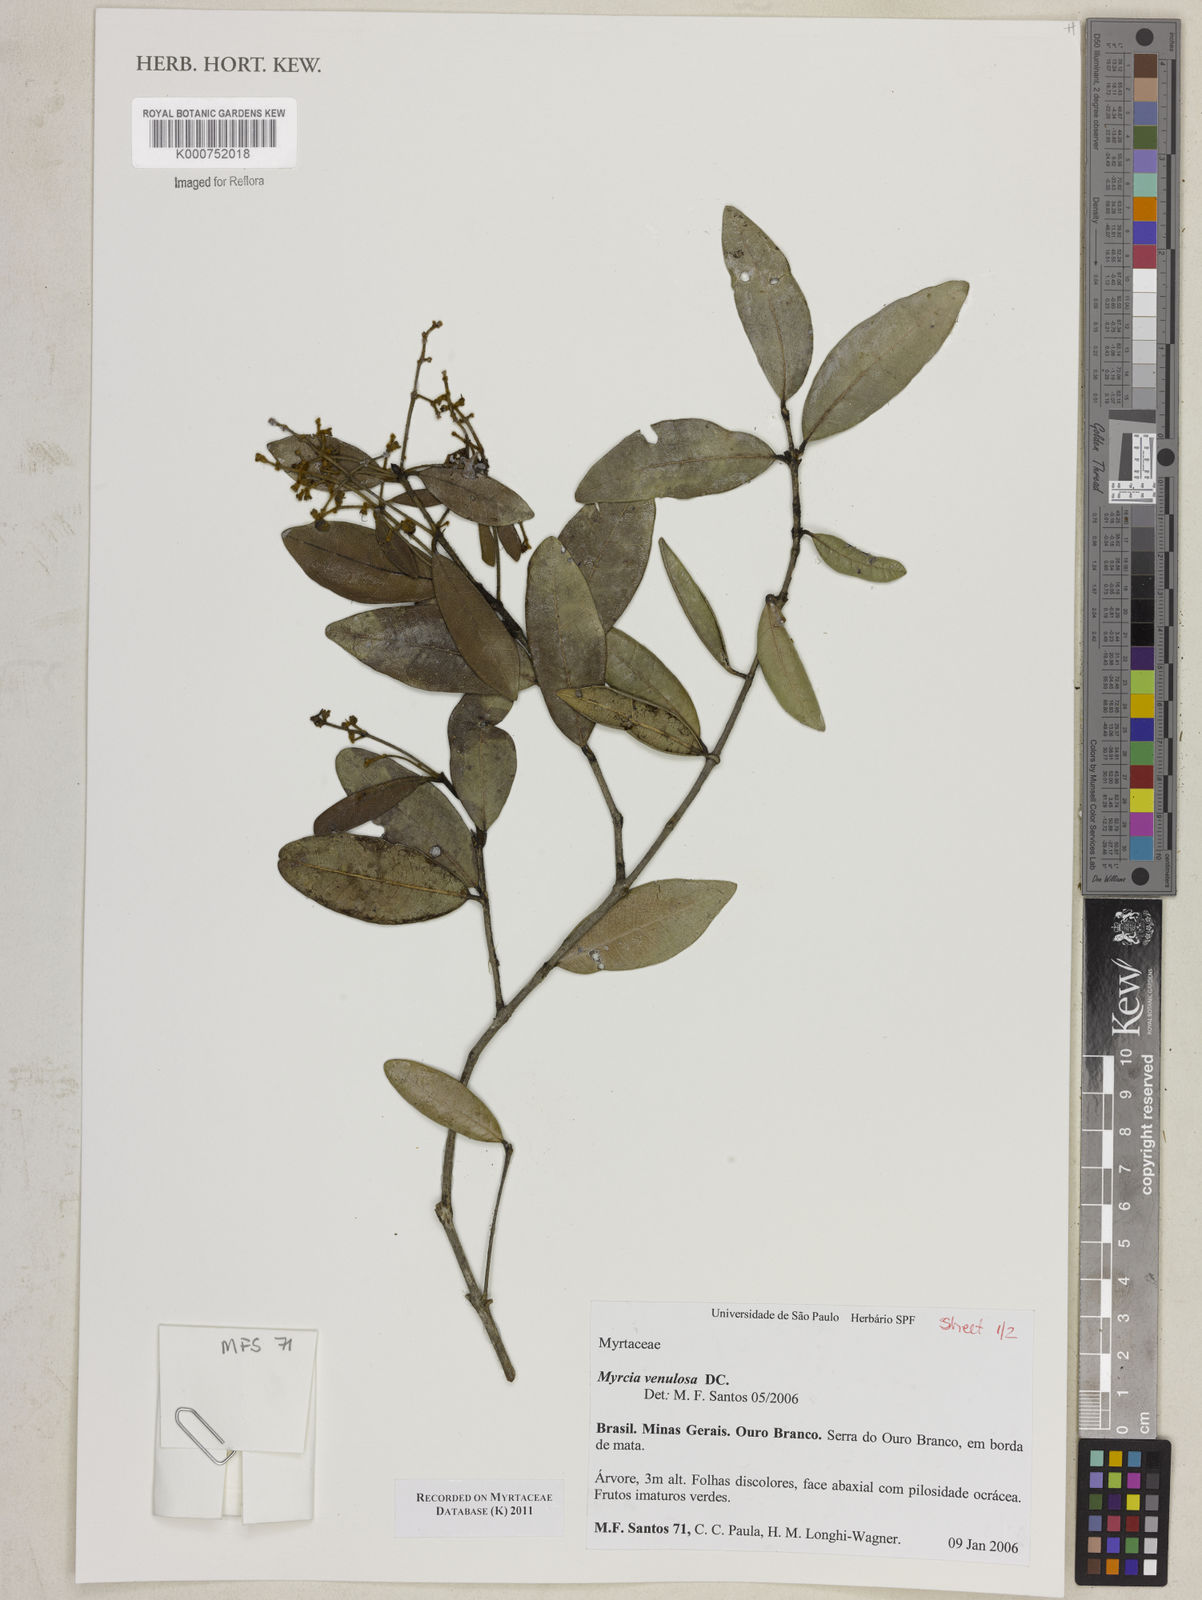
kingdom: Plantae
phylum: Tracheophyta
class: Magnoliopsida
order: Myrtales
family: Myrtaceae
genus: Myrcia
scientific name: Myrcia venulosa
